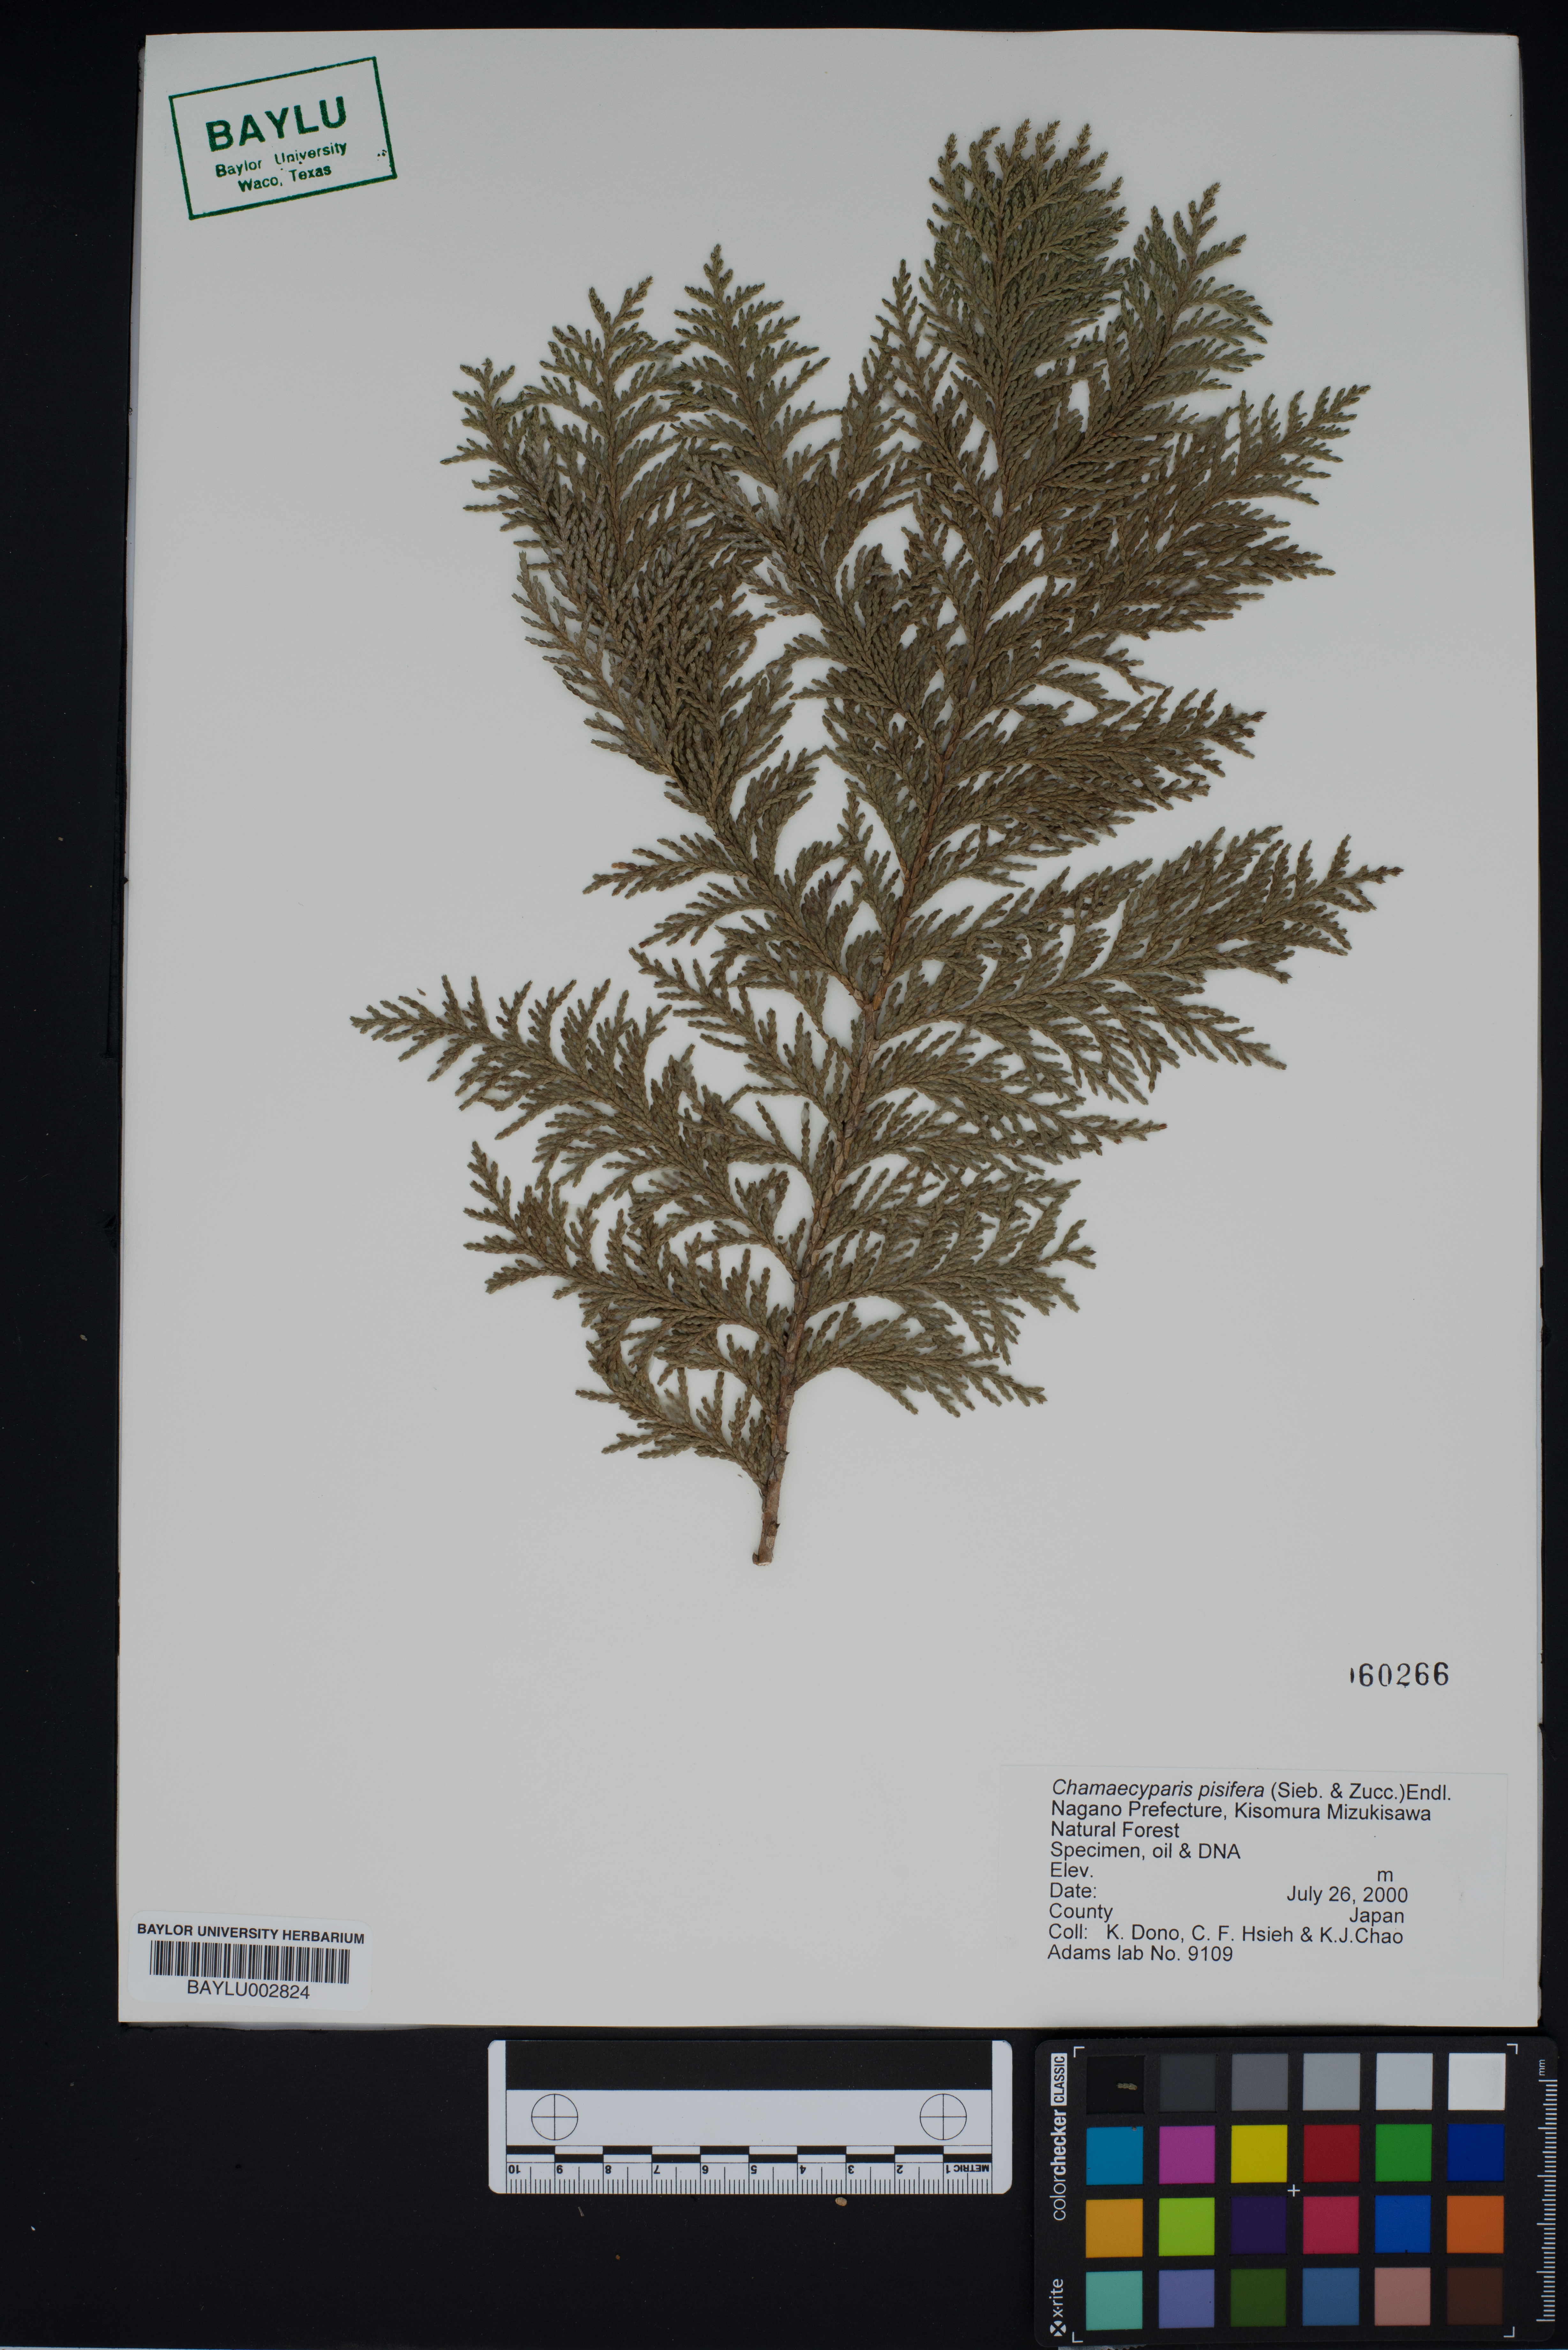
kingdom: Plantae
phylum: Tracheophyta
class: Pinopsida
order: Pinales
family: Cupressaceae
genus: Chamaecyparis
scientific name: Chamaecyparis pisifera
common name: Sawara cypress
